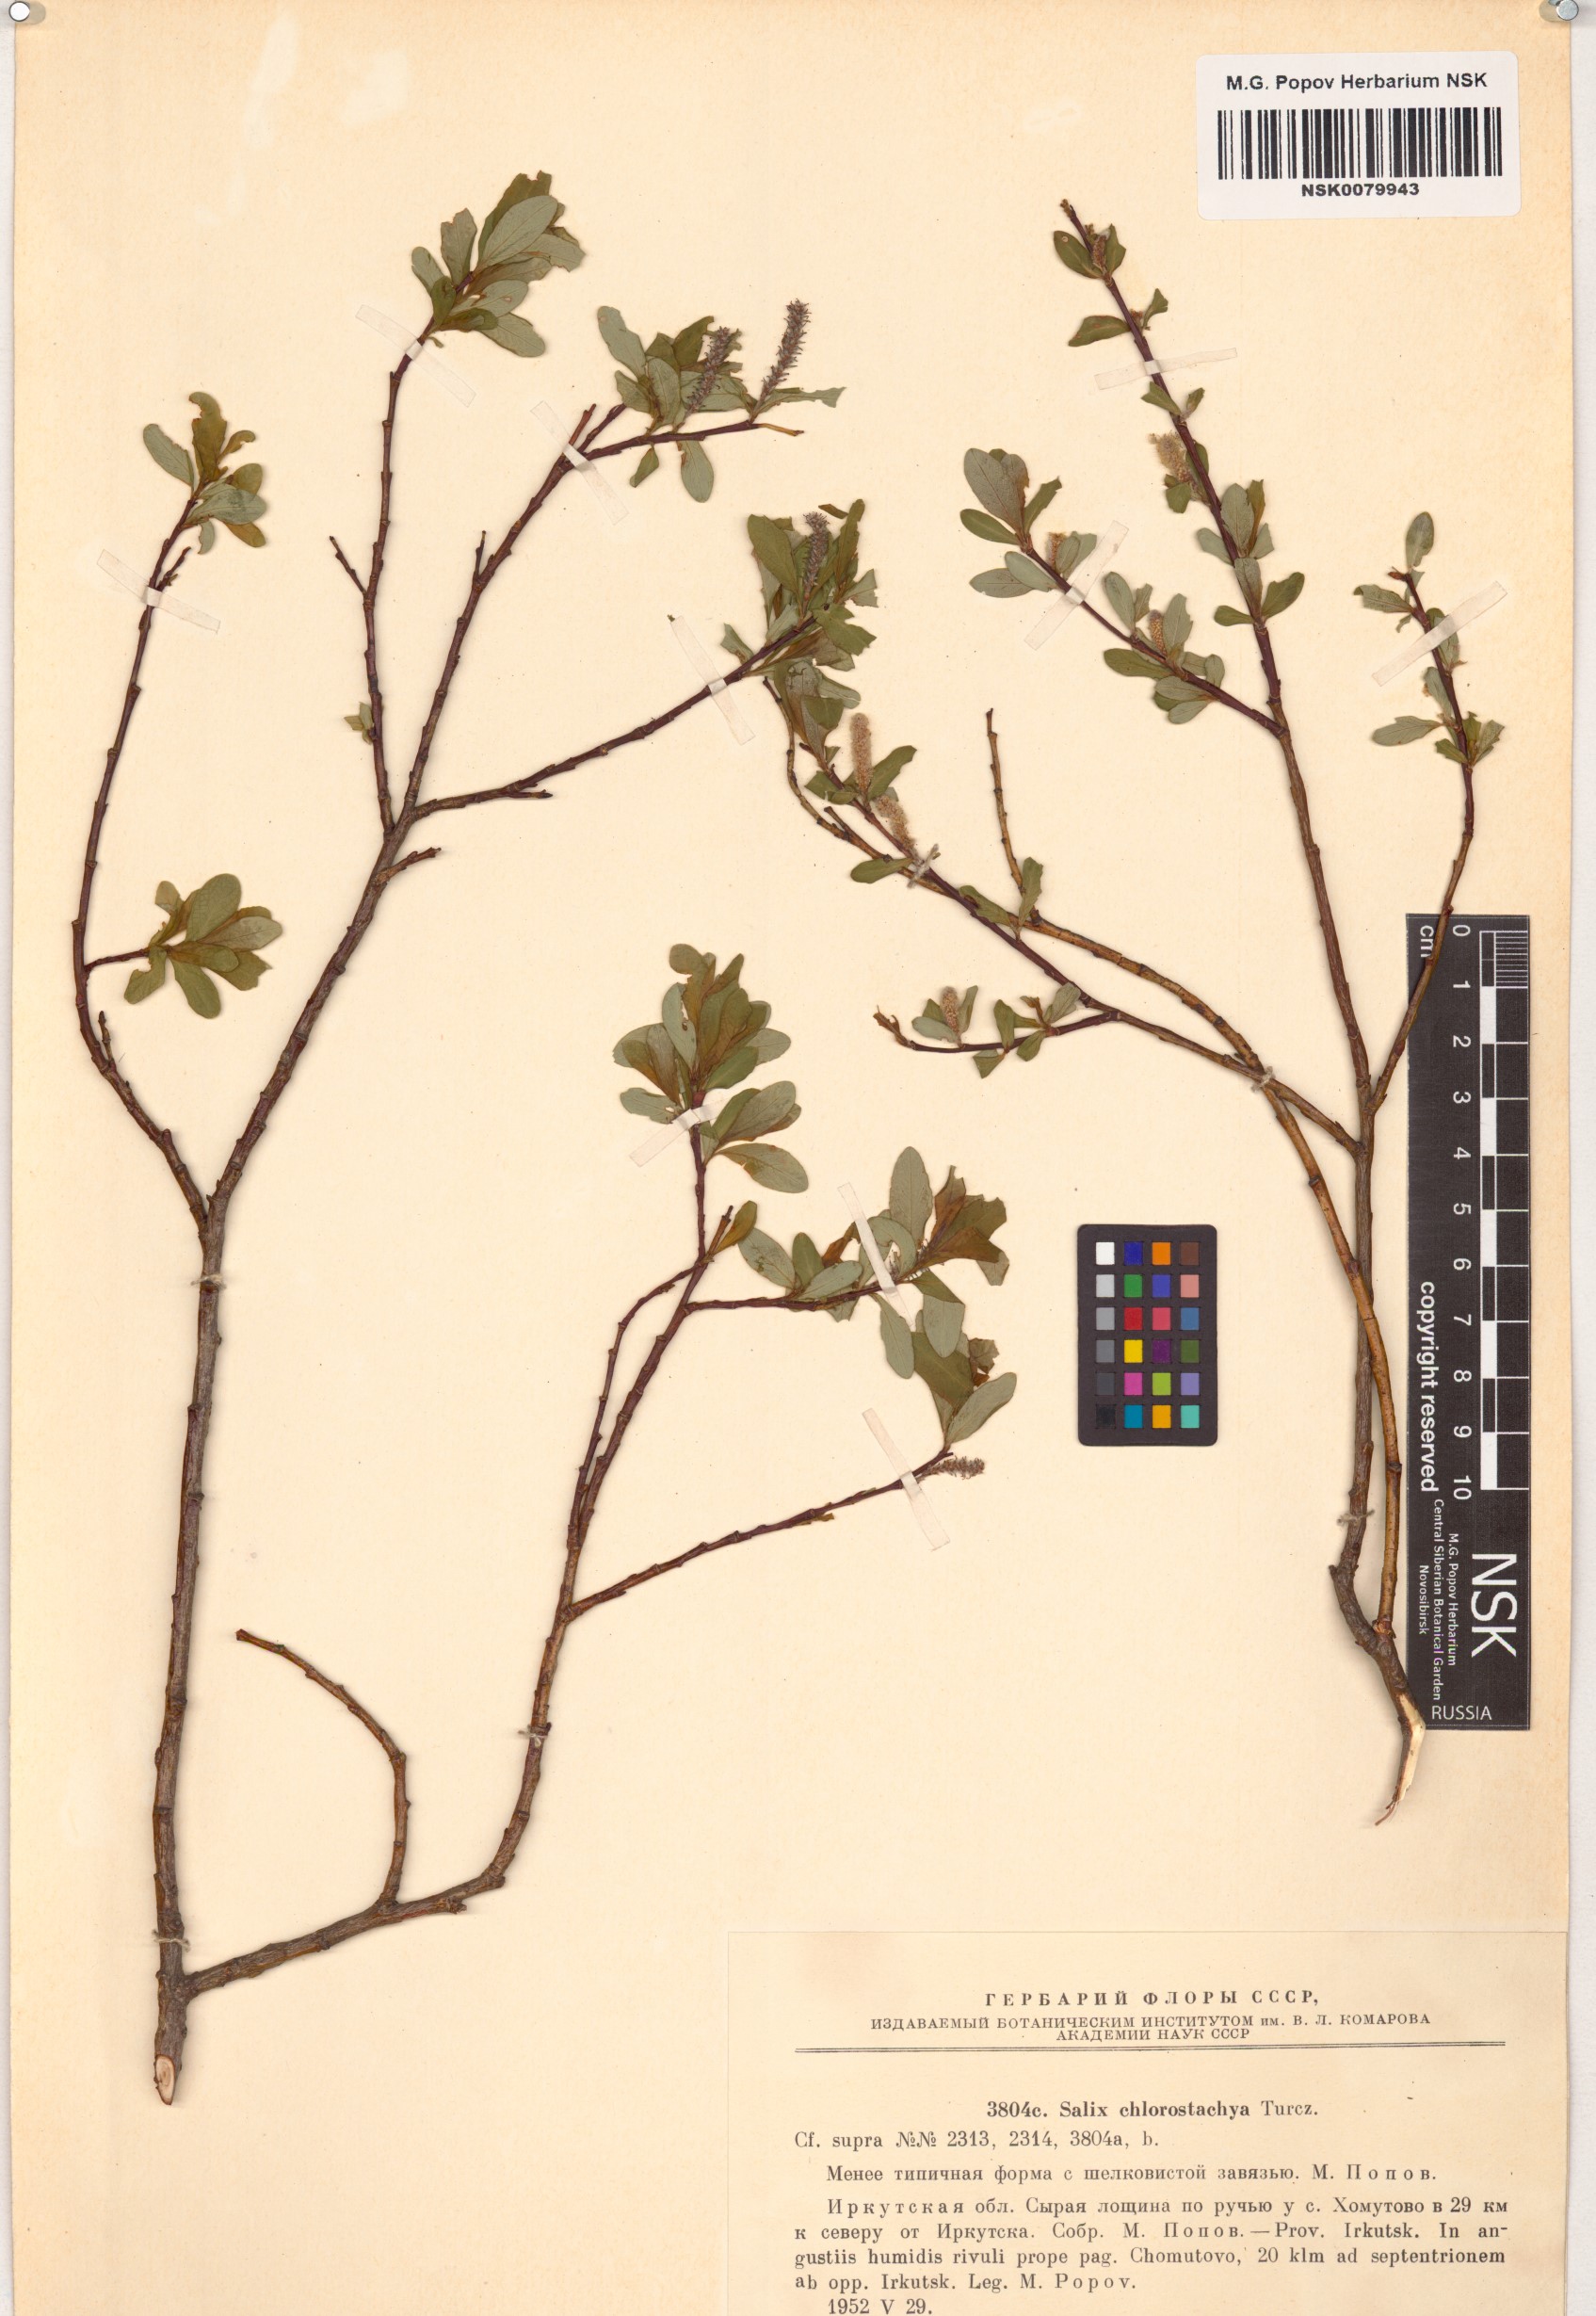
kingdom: Plantae
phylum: Tracheophyta
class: Magnoliopsida
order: Malpighiales
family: Salicaceae
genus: Salix
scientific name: Salix rhamnifolia
